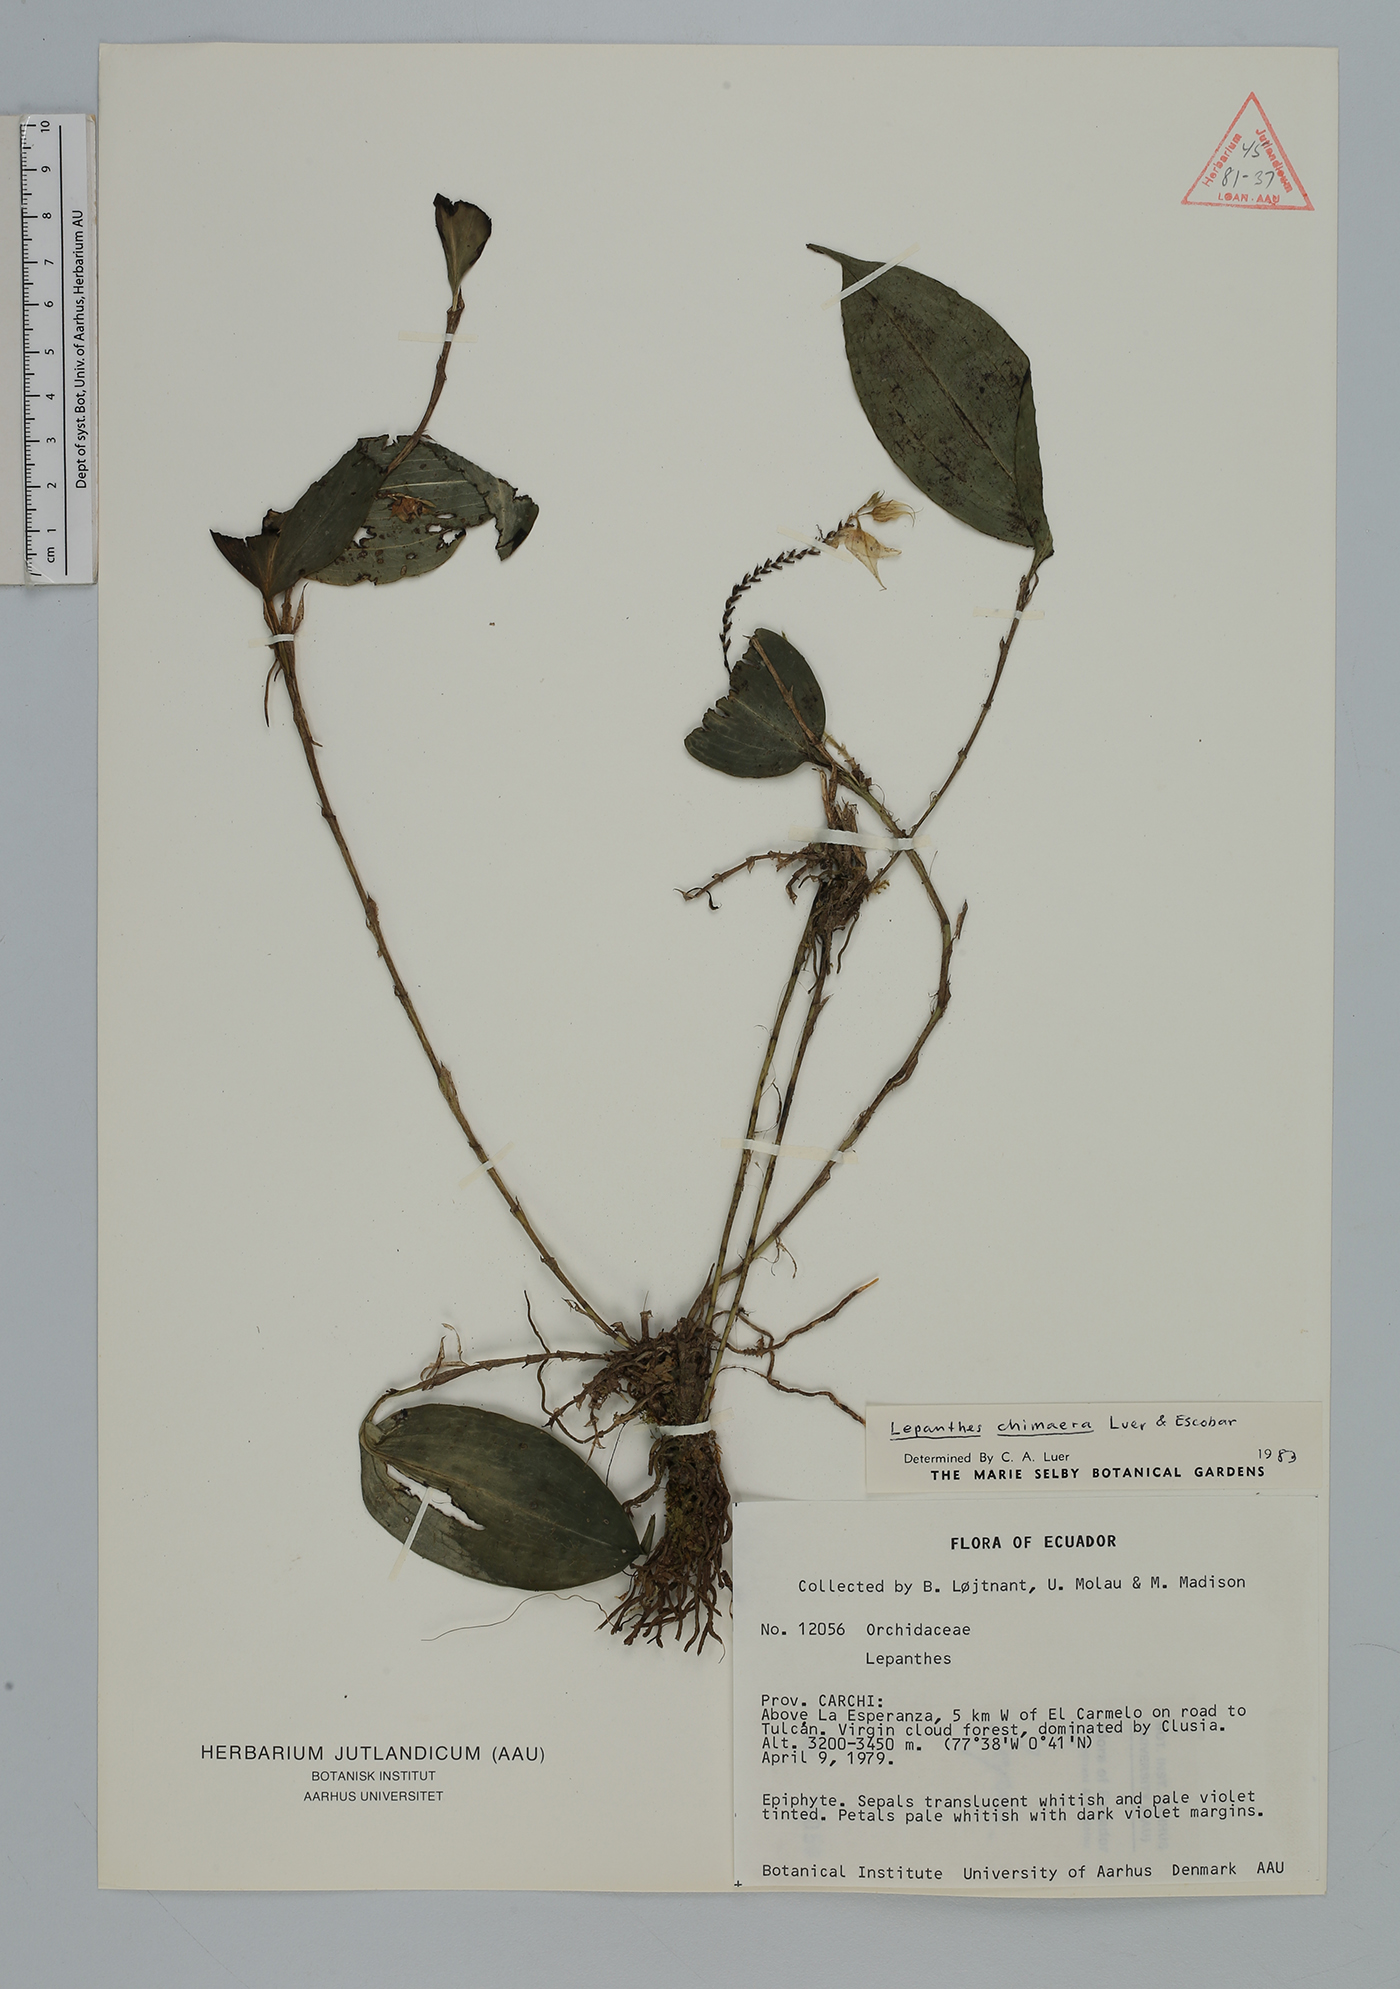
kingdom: Plantae
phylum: Tracheophyta
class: Liliopsida
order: Asparagales
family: Orchidaceae
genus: Lepanthes
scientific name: Lepanthes
